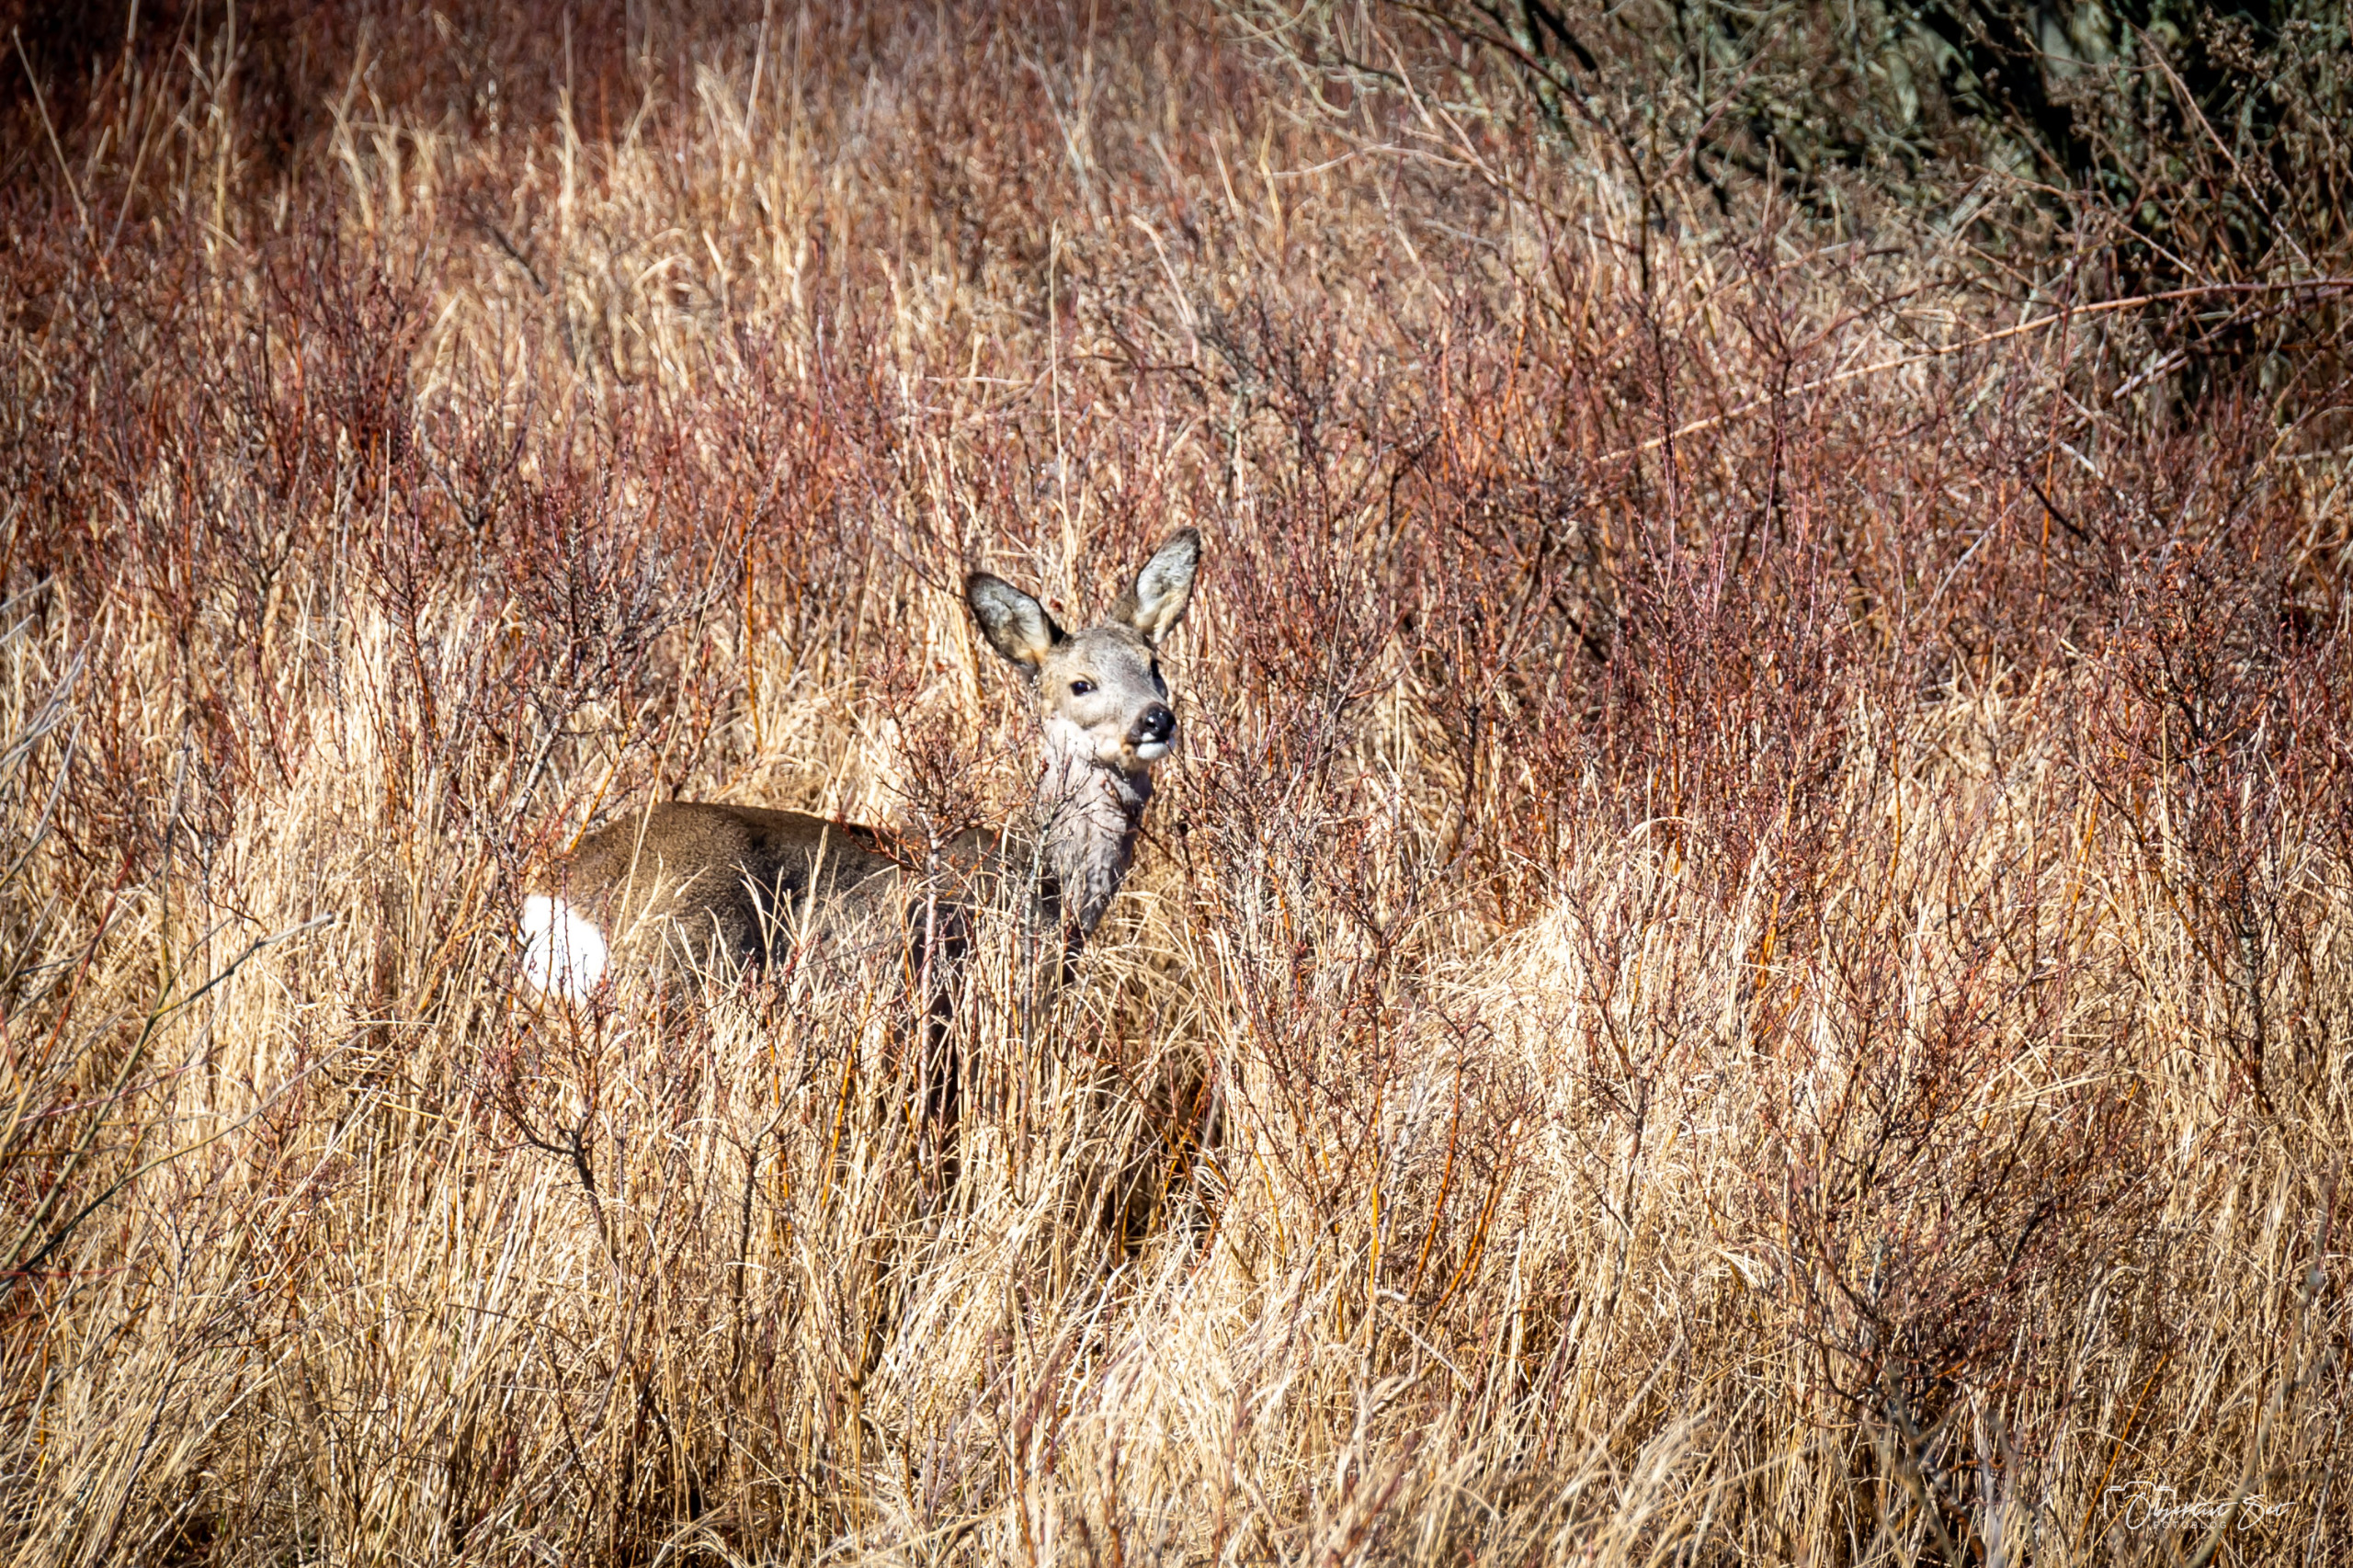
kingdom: Animalia
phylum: Chordata
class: Mammalia
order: Artiodactyla
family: Cervidae
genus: Capreolus
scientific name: Capreolus capreolus
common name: Rådyr
